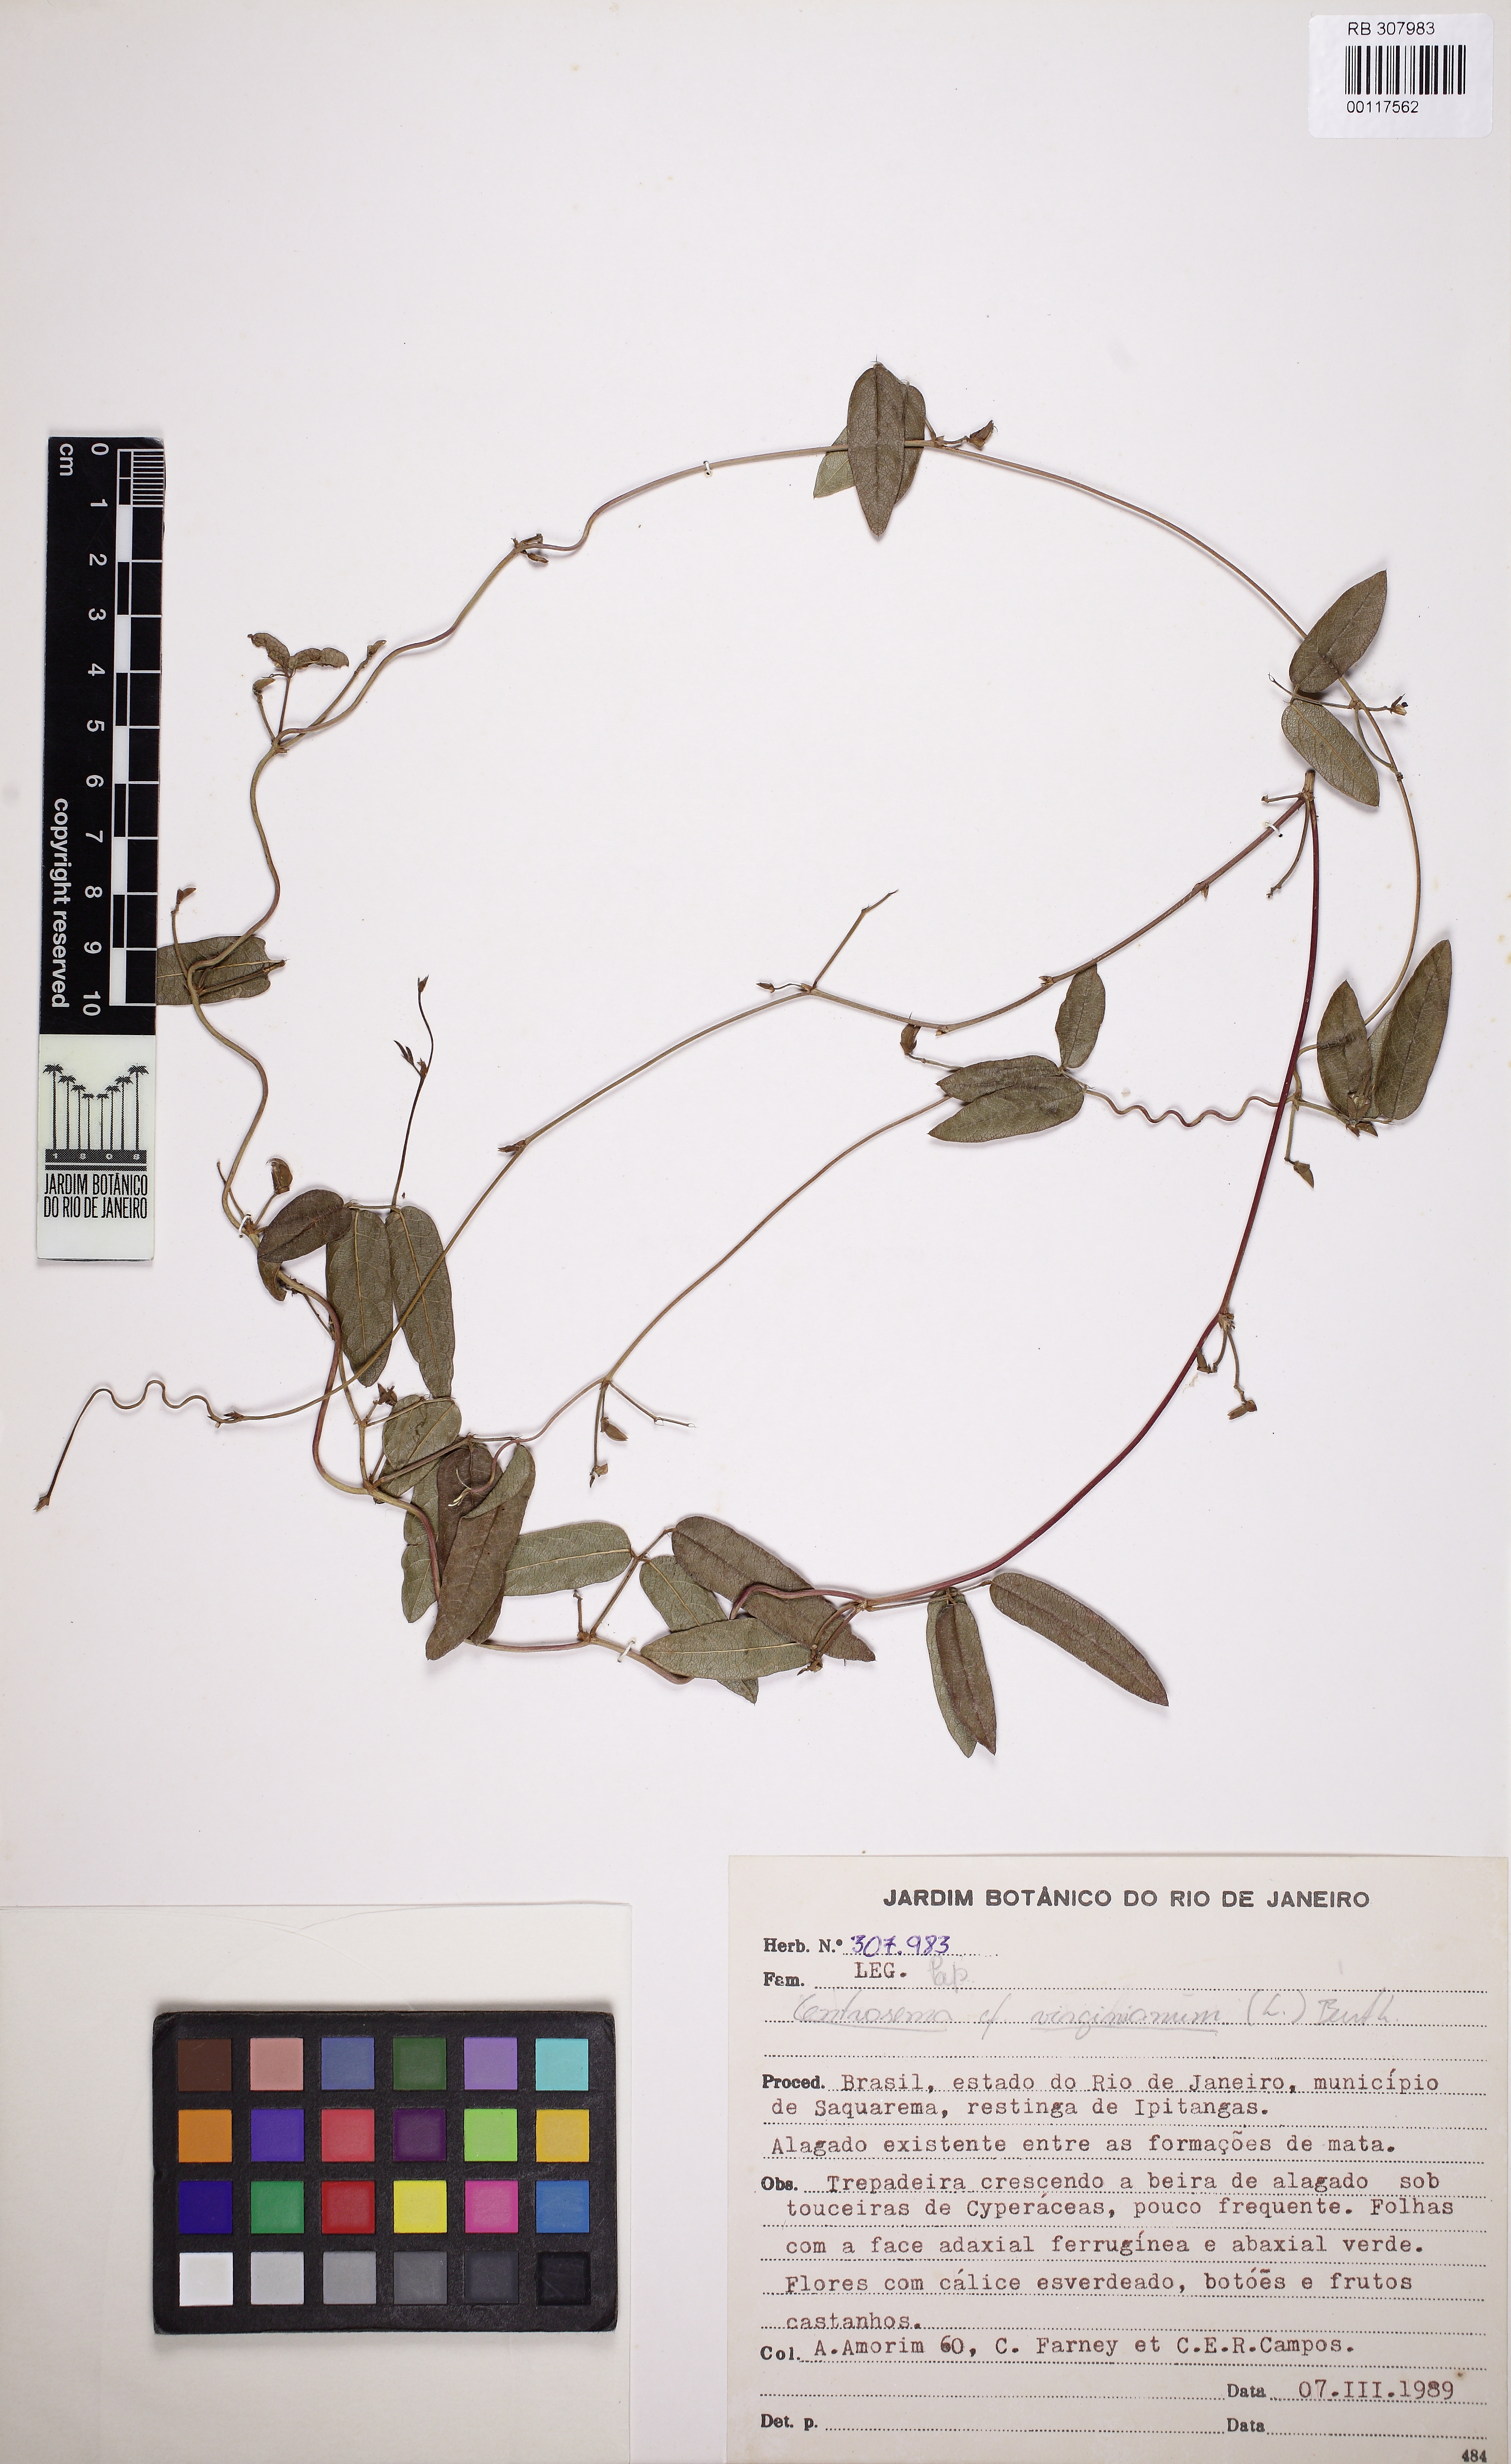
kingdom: Plantae
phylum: Tracheophyta
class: Magnoliopsida
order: Fabales
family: Fabaceae
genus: Centrosema
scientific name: Centrosema virginianum
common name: Butterfly-pea
